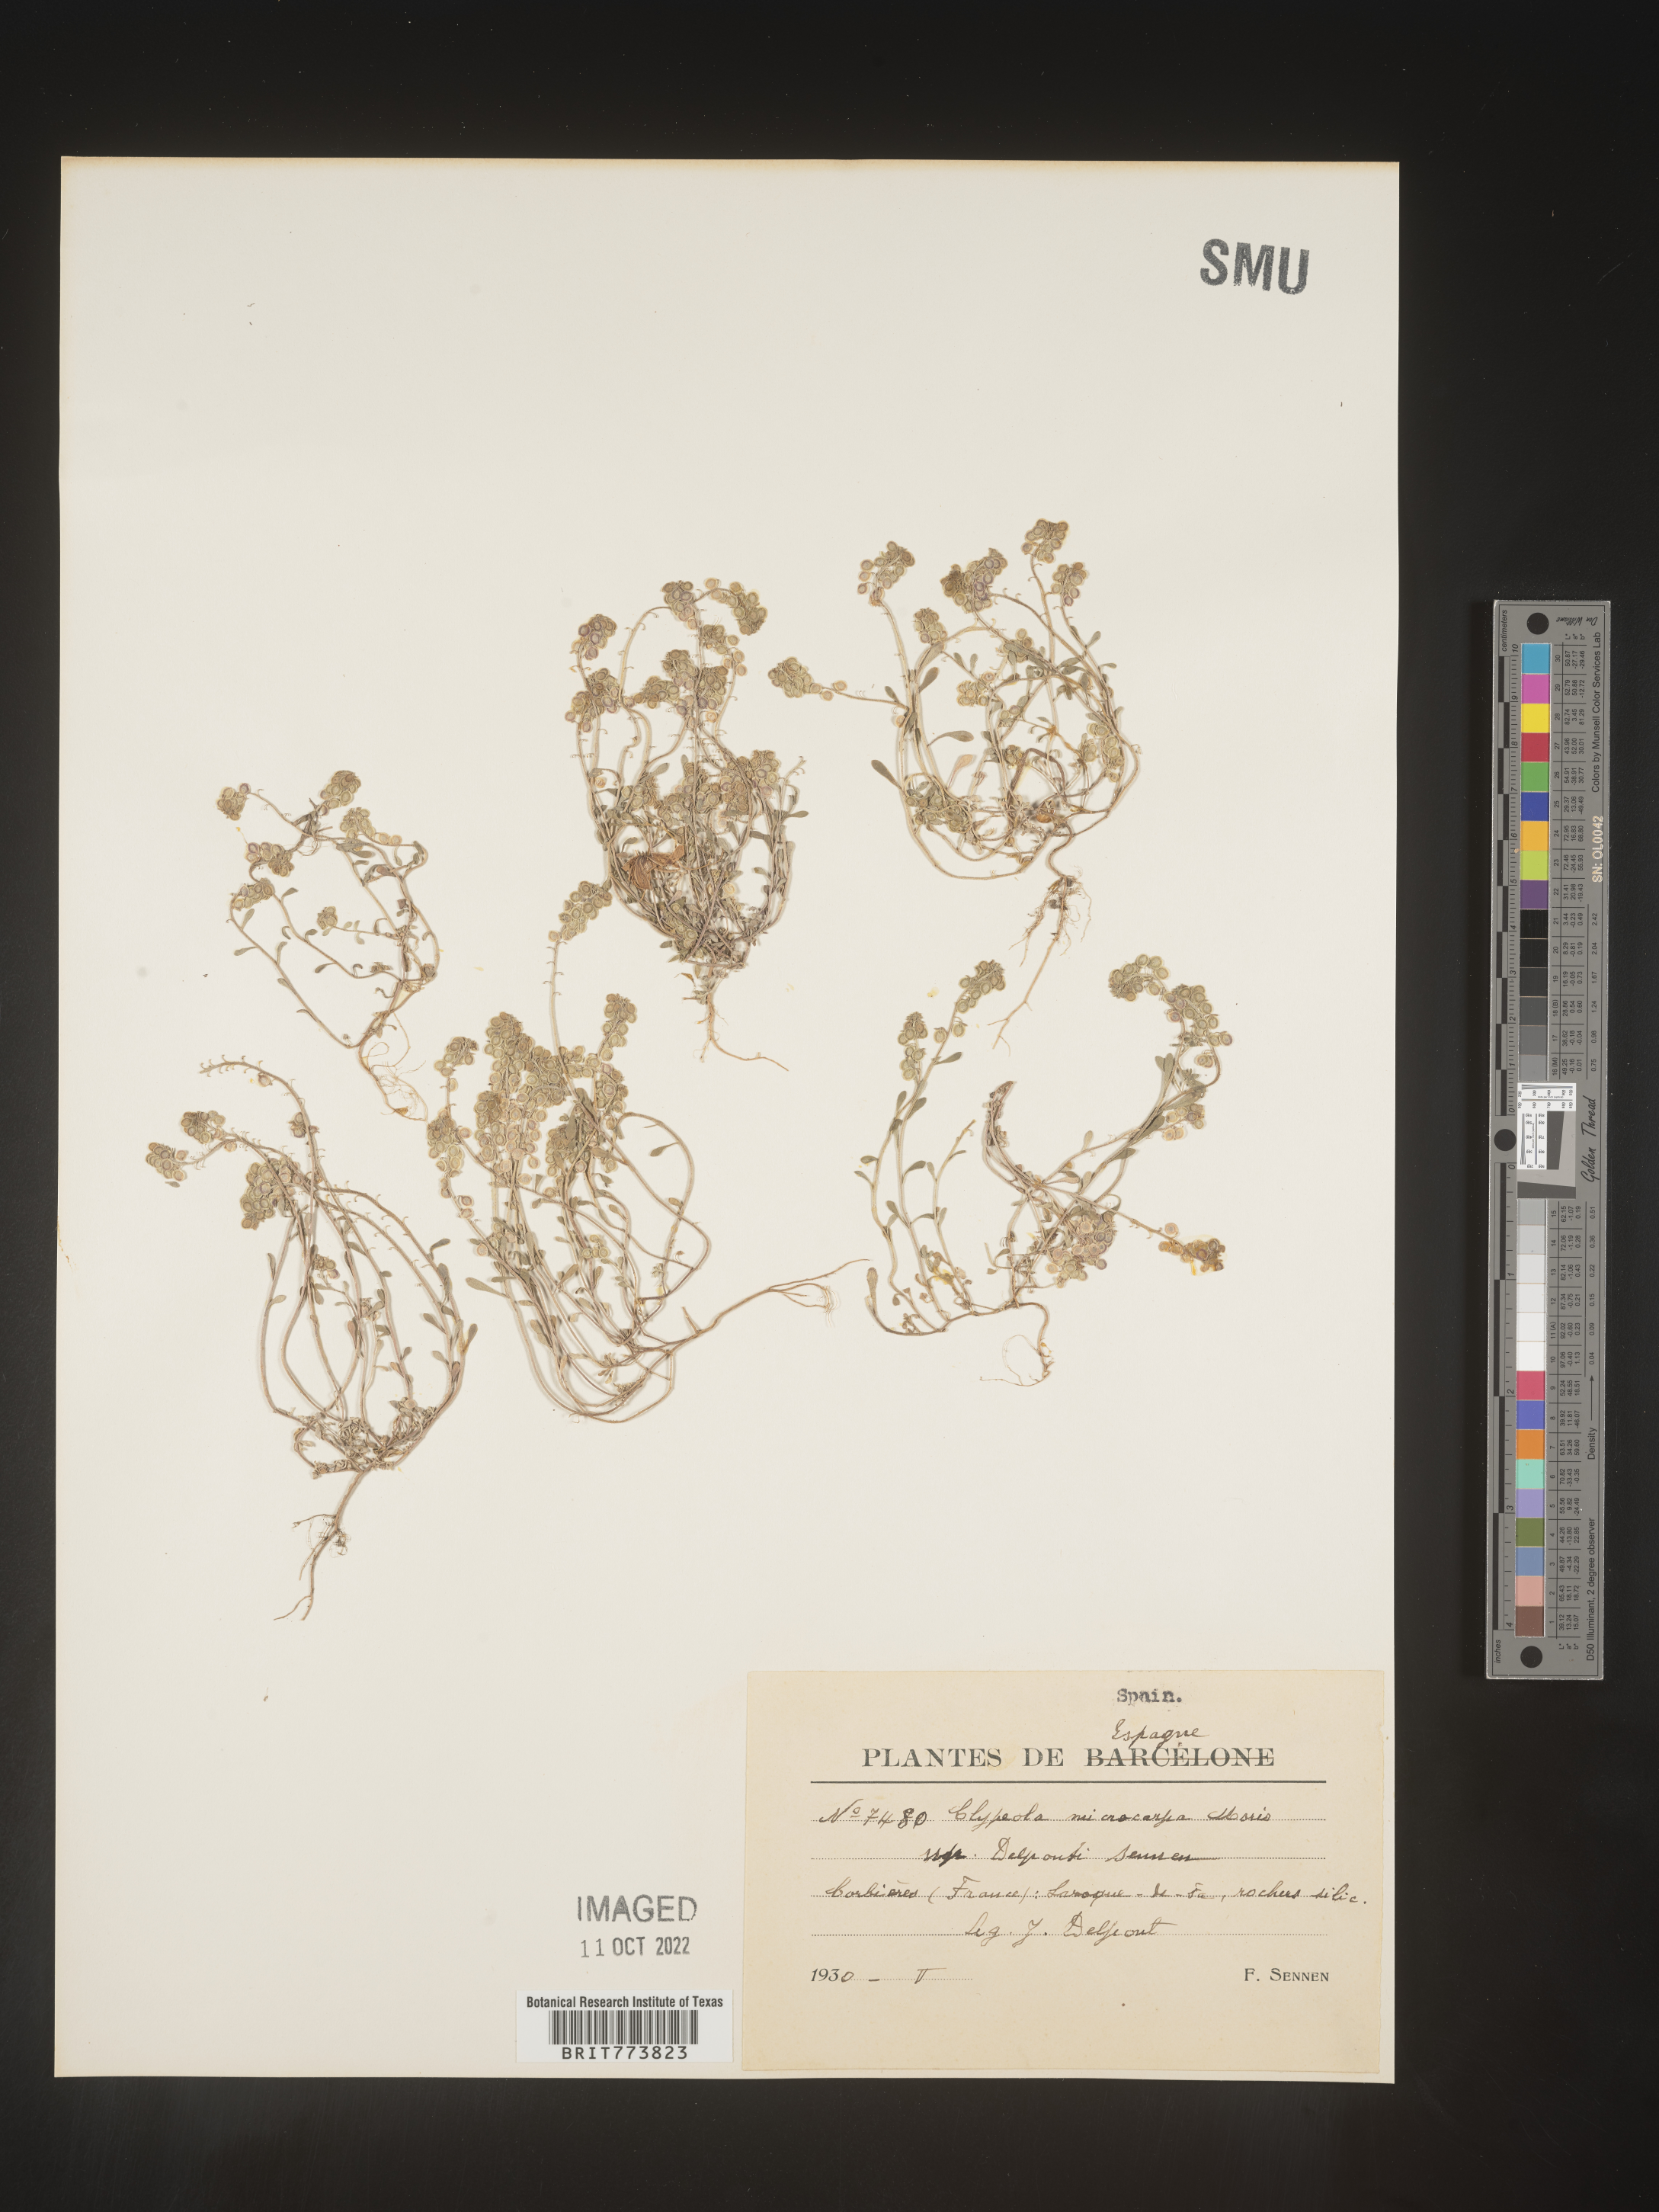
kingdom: Plantae
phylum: Tracheophyta
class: Magnoliopsida
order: Brassicales
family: Brassicaceae
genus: Clypeola
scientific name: Clypeola
